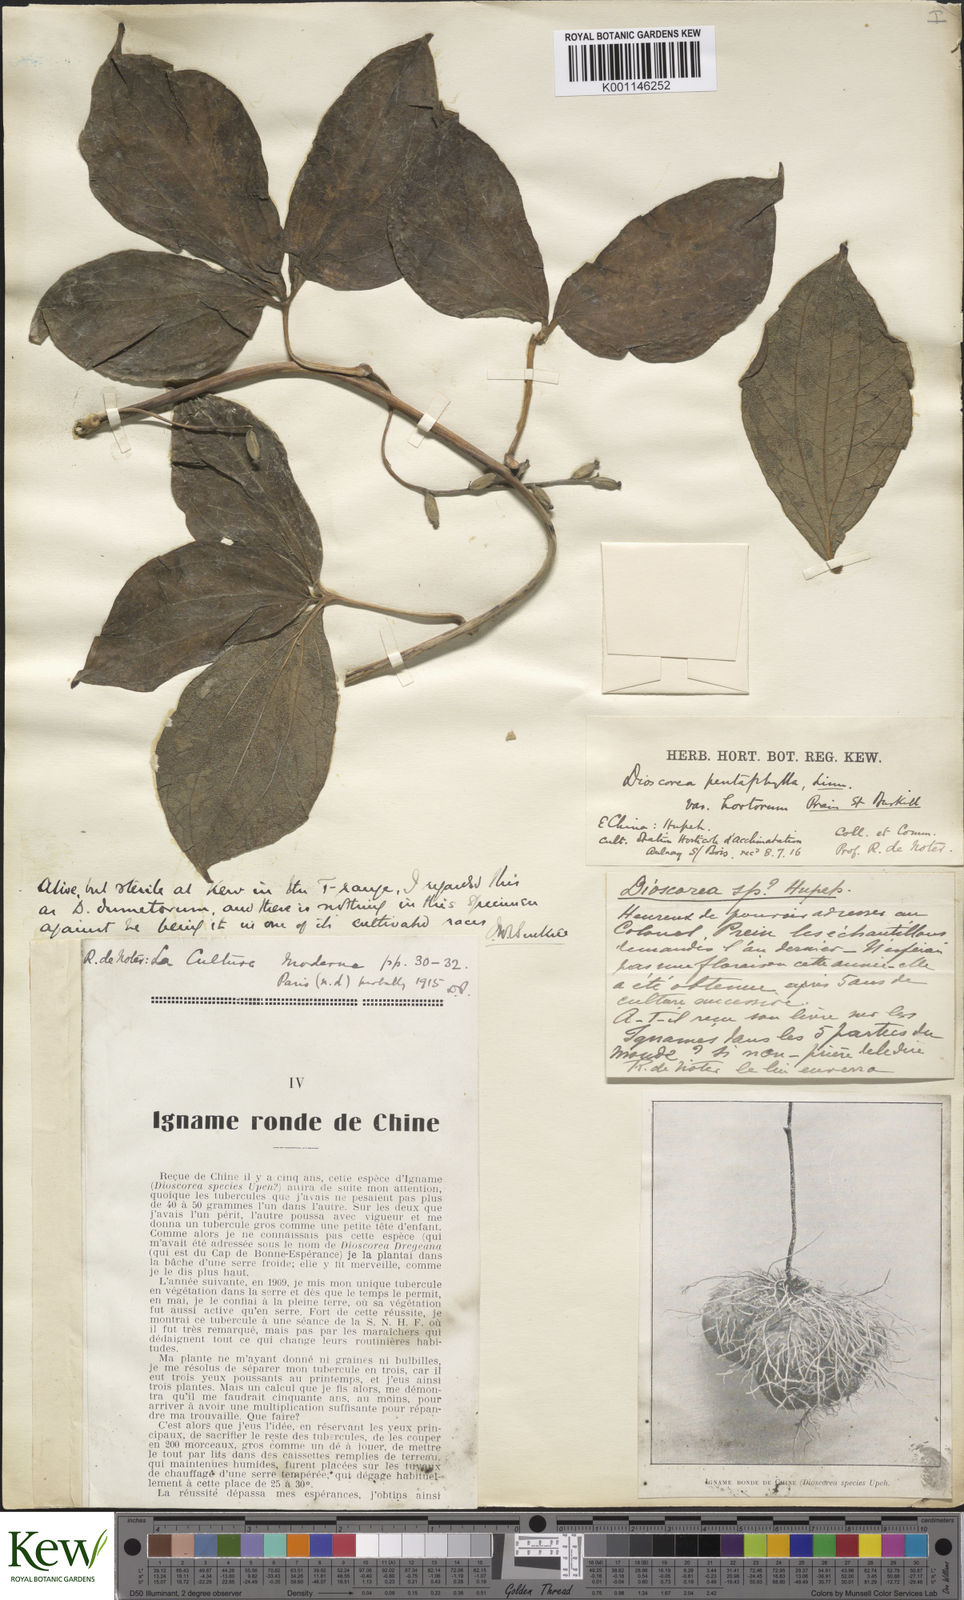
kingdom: Plantae
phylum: Tracheophyta
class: Liliopsida
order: Dioscoreales
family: Dioscoreaceae
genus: Dioscorea
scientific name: Dioscorea dumetorum
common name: African bitter yam
